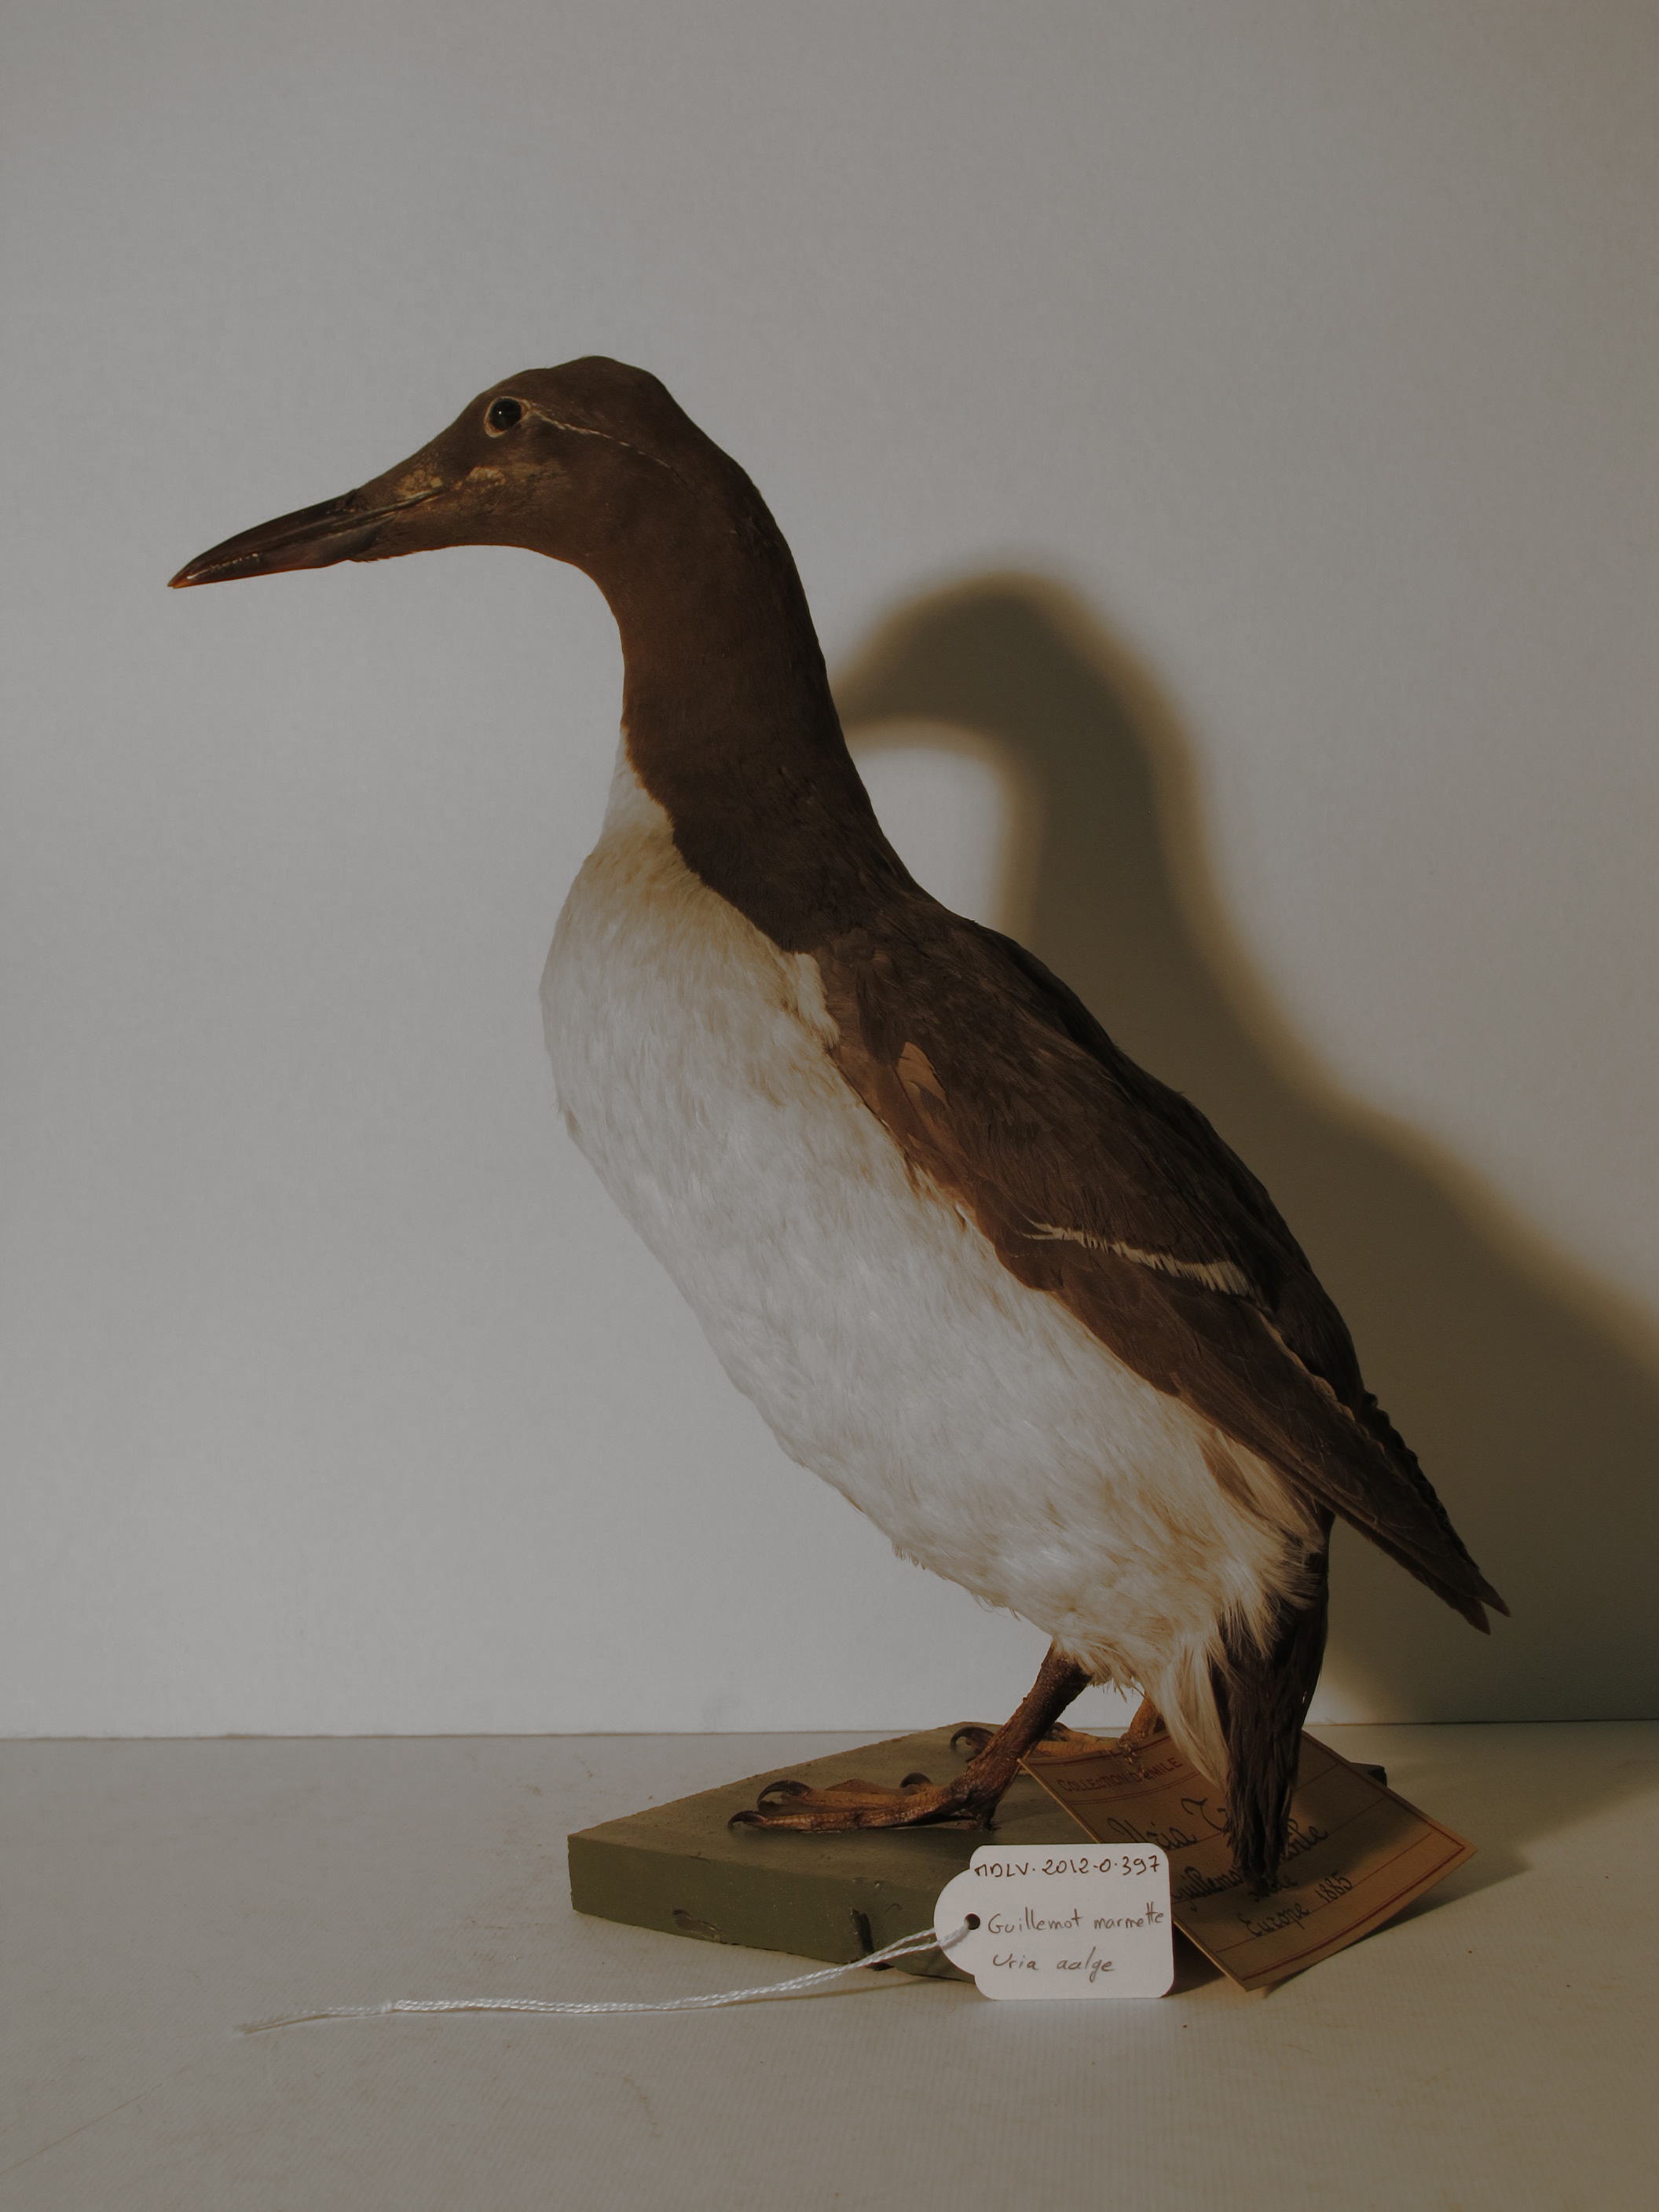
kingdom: Animalia
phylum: Chordata
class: Aves
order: Charadriiformes
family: Alcidae
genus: Uria
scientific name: Uria aalge
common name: Common Murre
